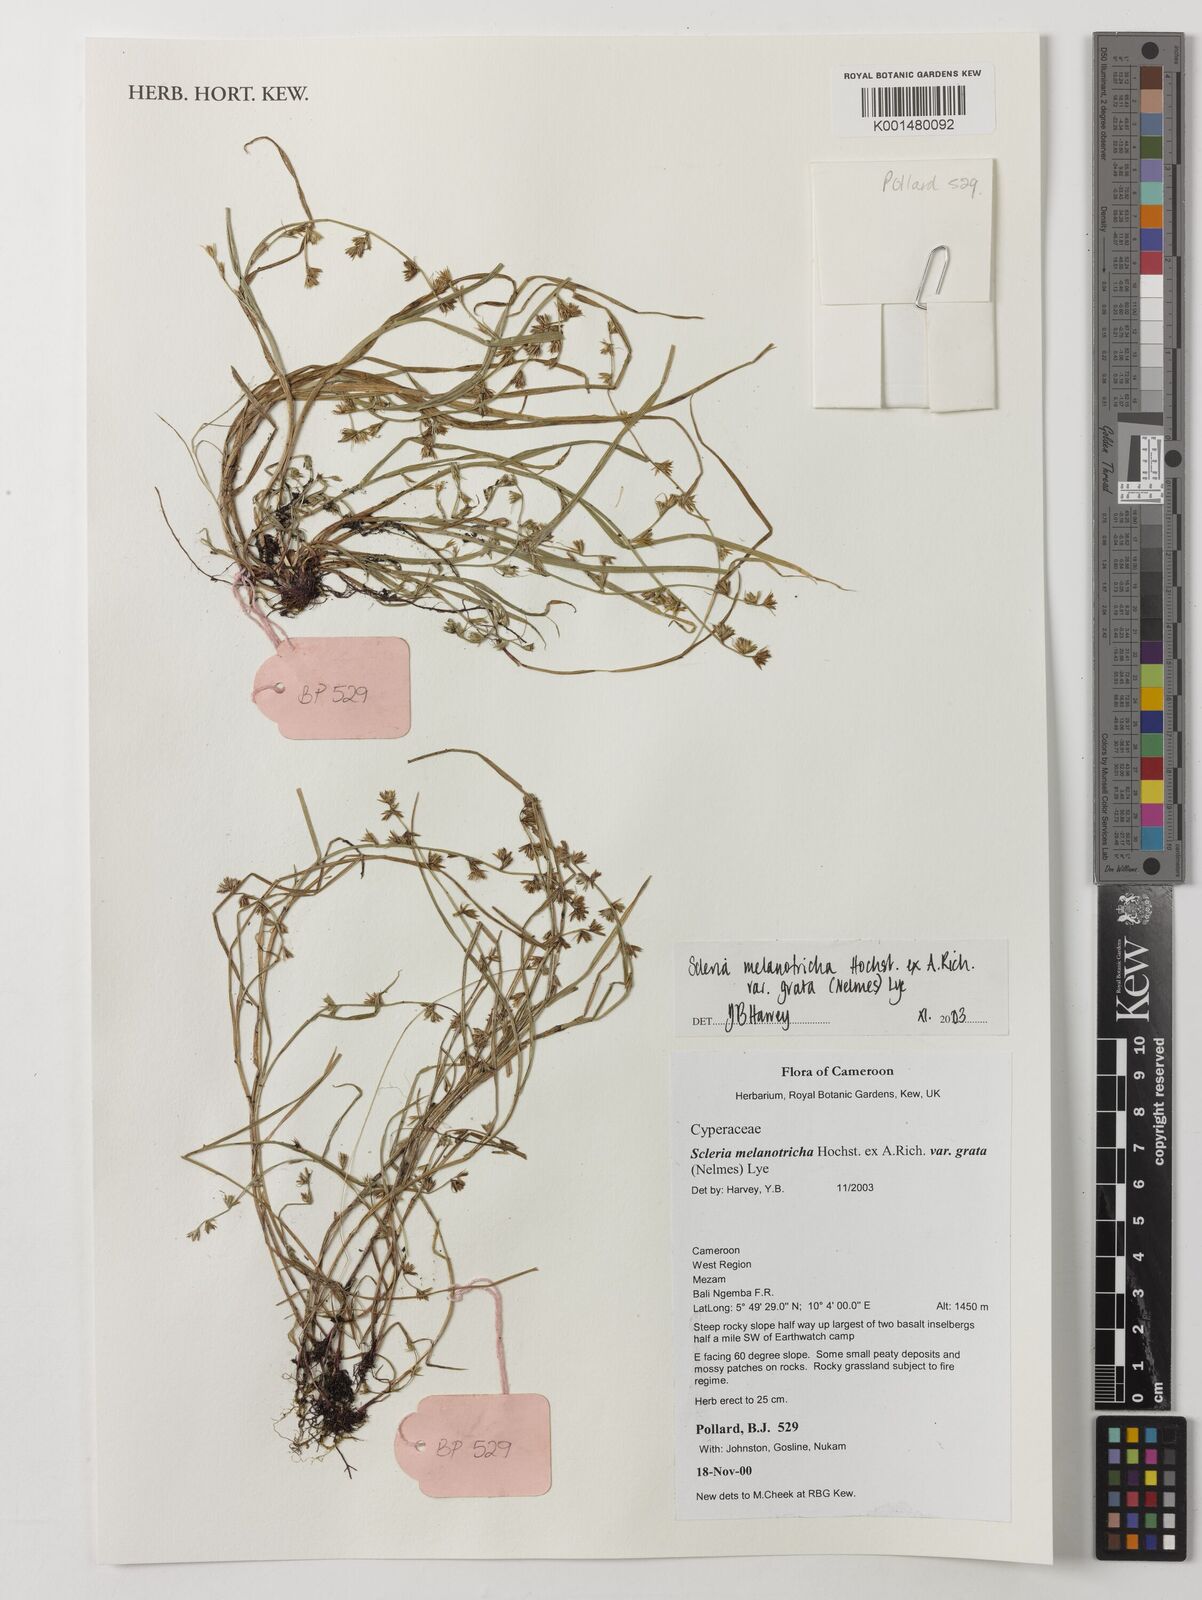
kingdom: Plantae
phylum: Tracheophyta
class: Liliopsida
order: Poales
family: Cyperaceae
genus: Scleria
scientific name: Scleria melanotricha
